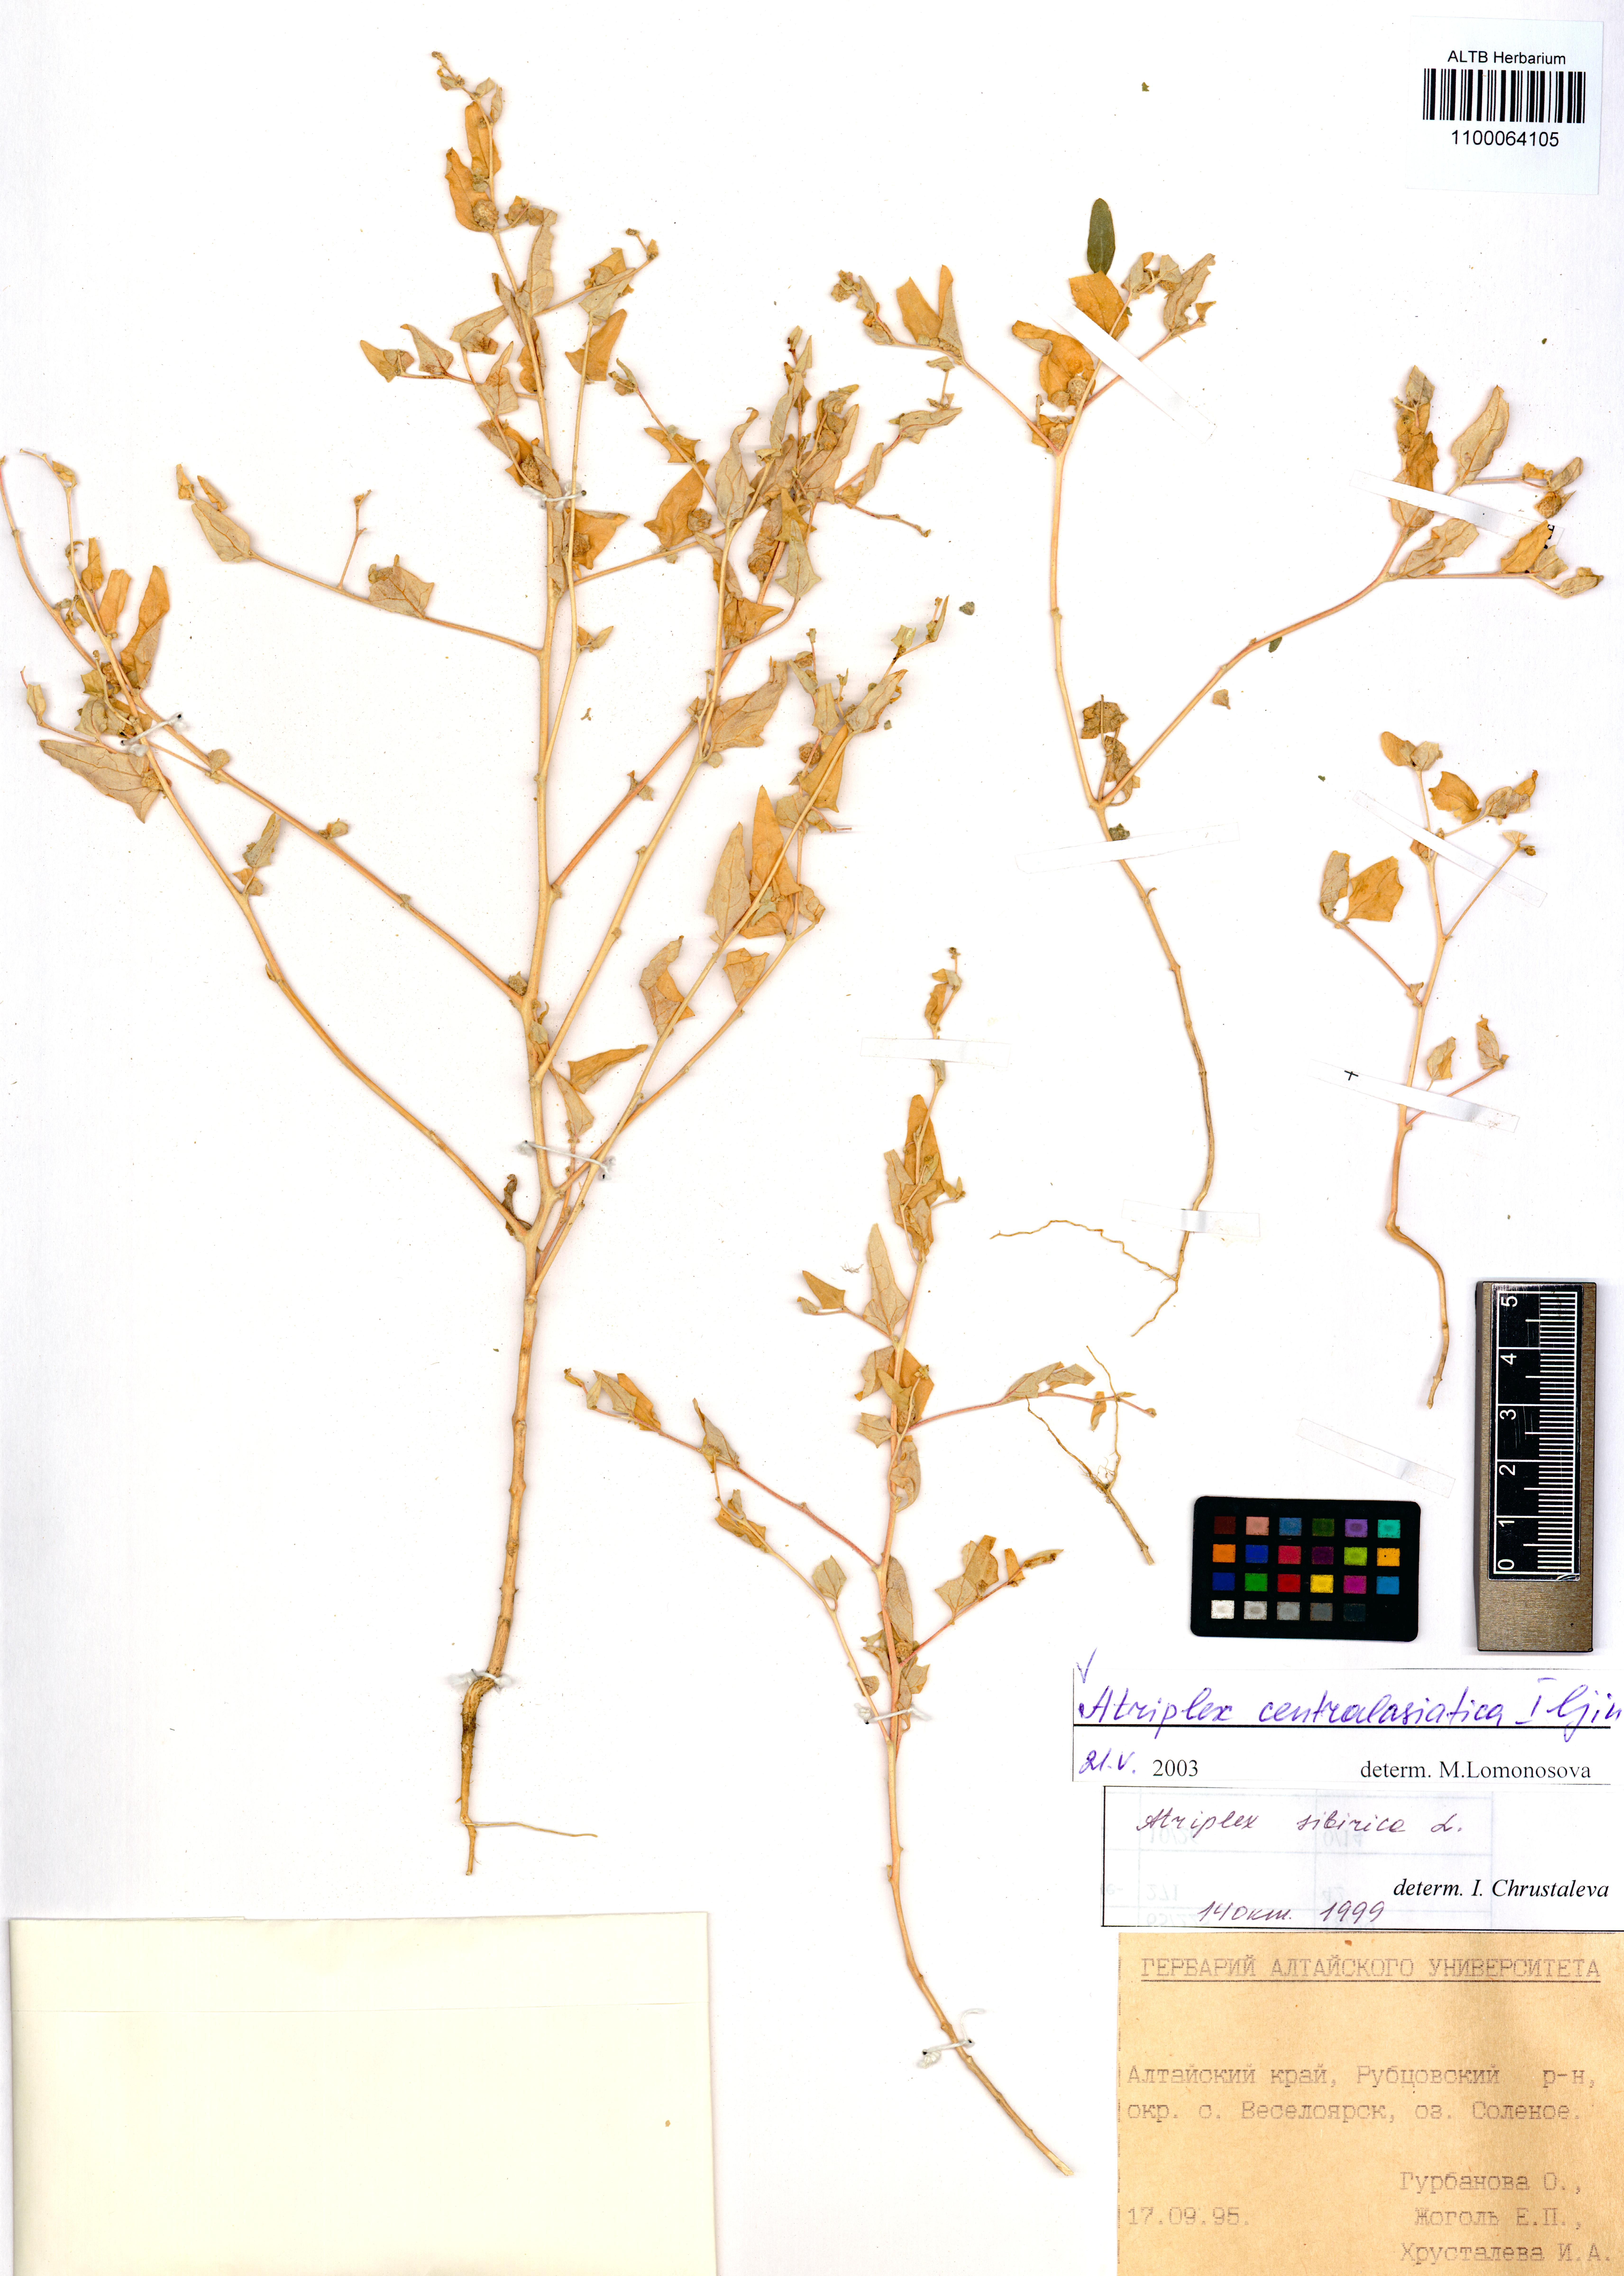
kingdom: Plantae
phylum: Tracheophyta
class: Magnoliopsida
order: Caryophyllales
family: Amaranthaceae
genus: Atriplex
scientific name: Atriplex centralasiatica
